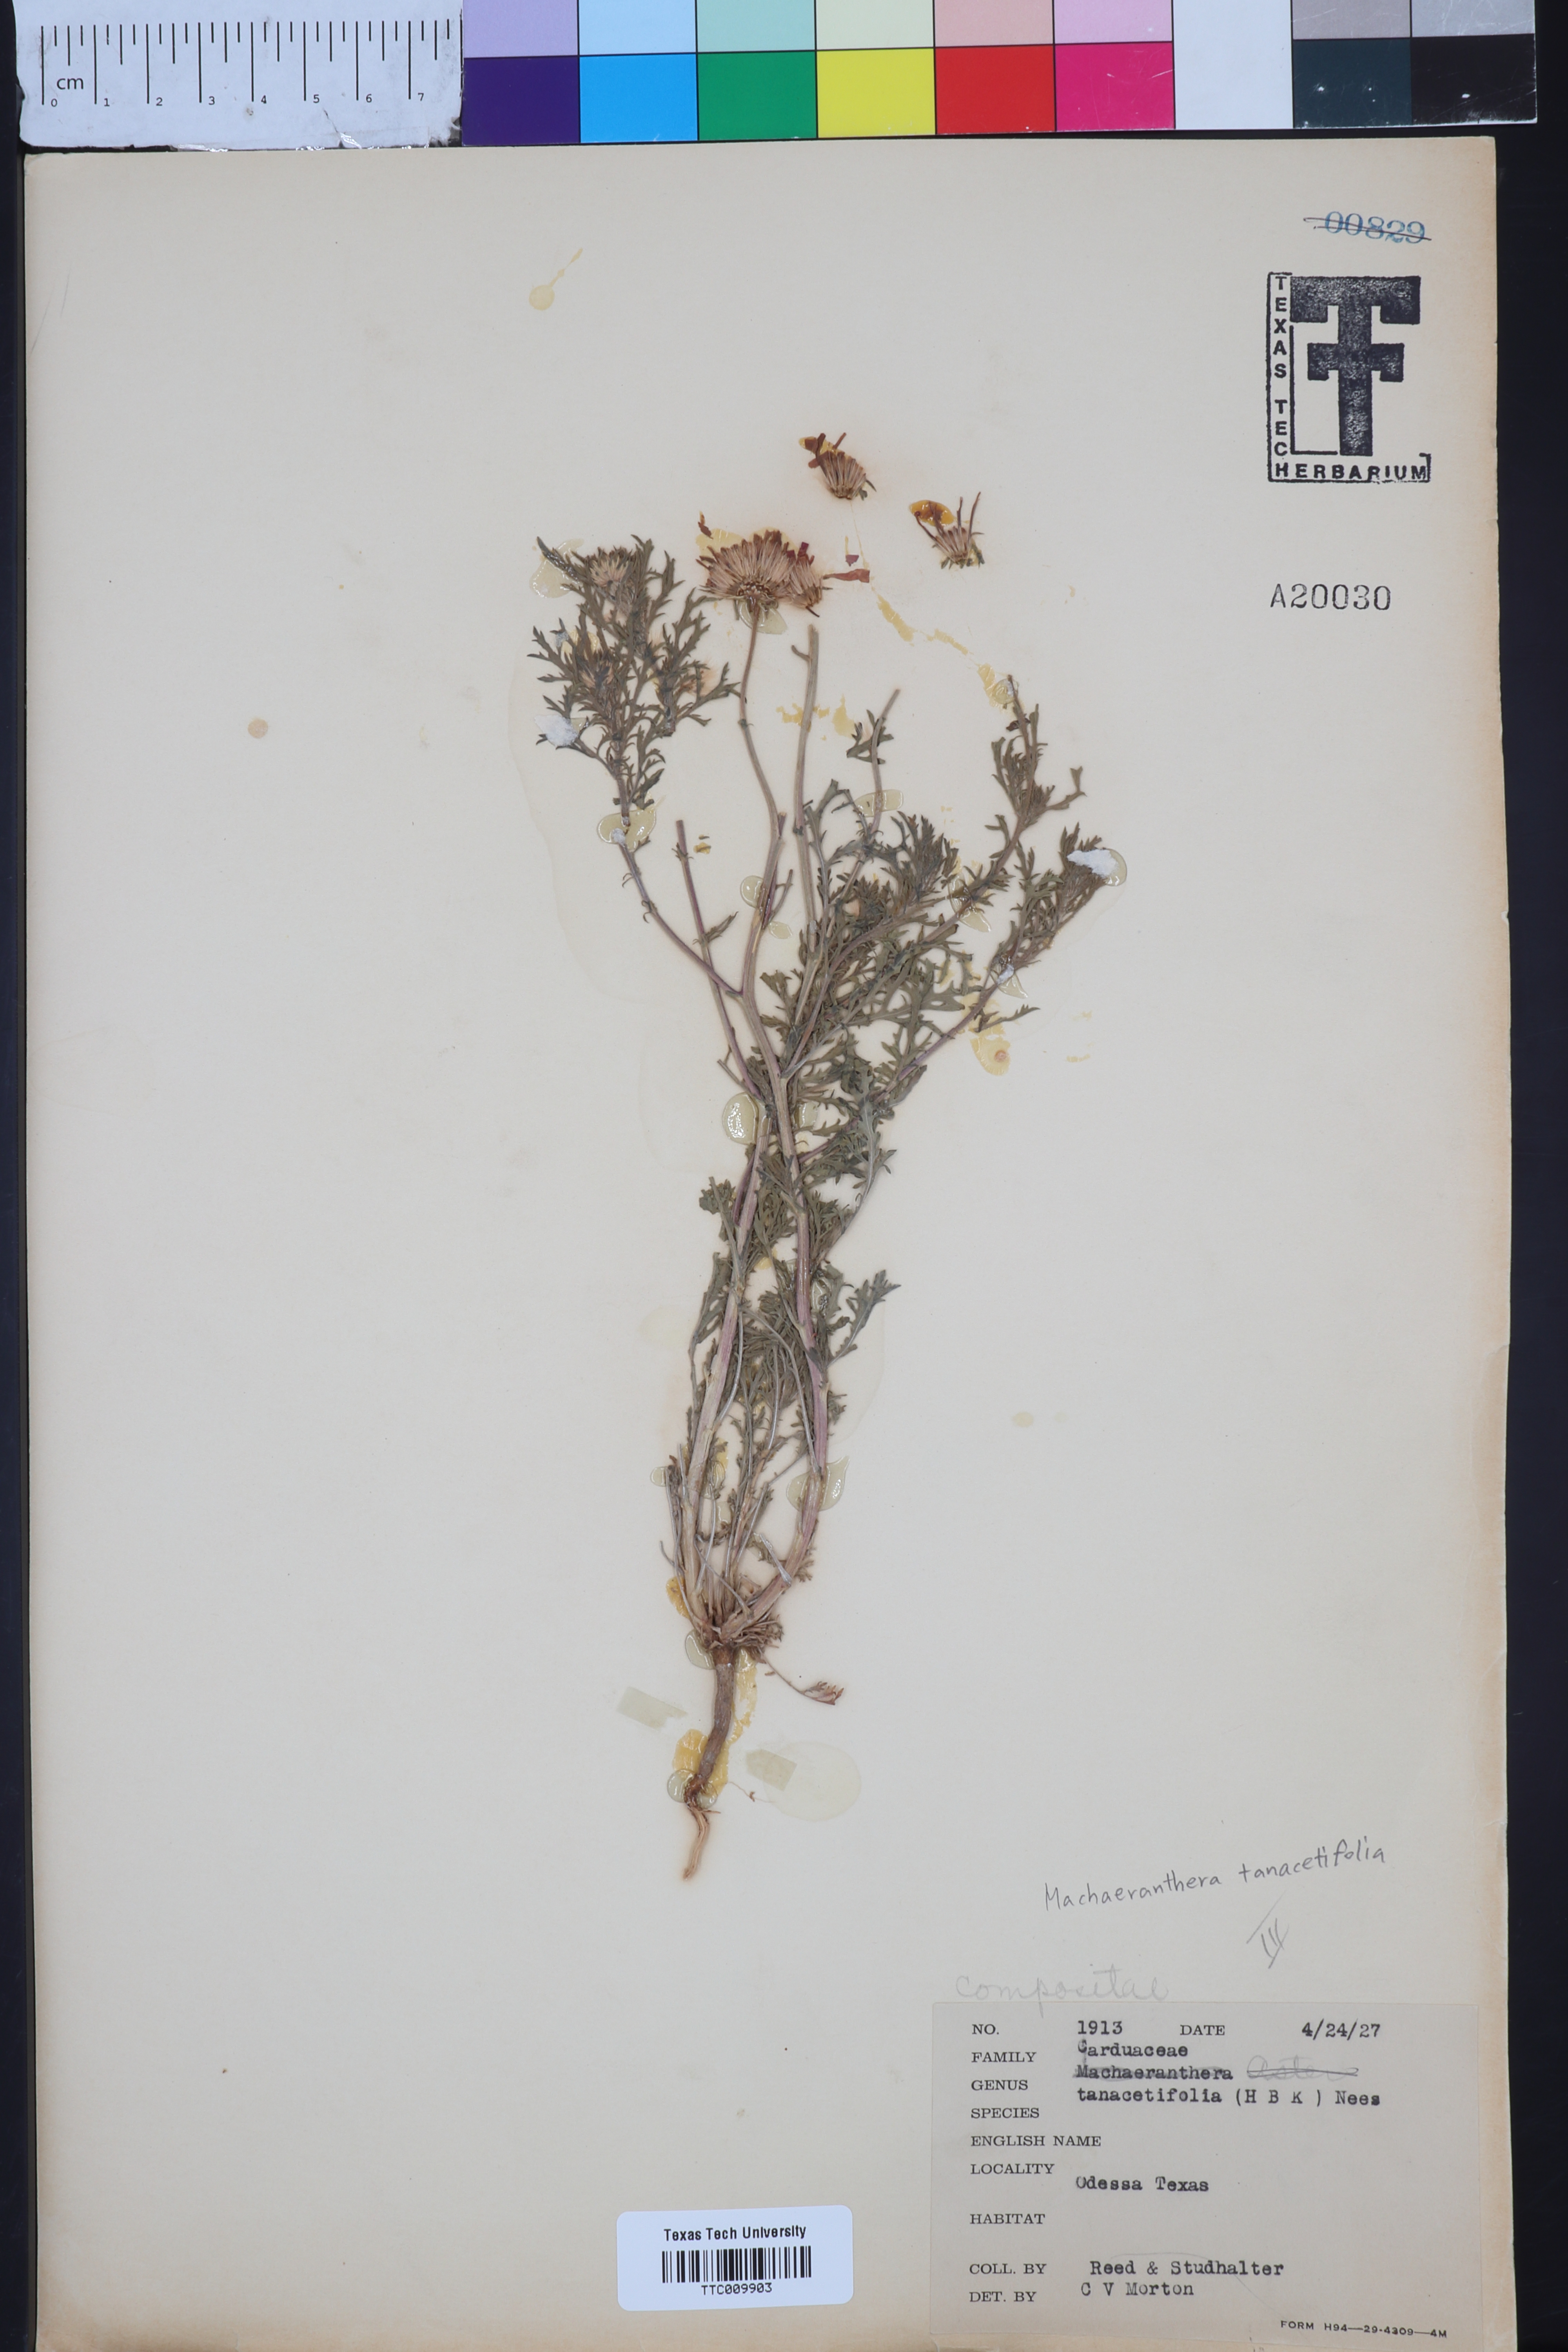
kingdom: Plantae
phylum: Tracheophyta
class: Magnoliopsida
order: Asterales
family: Asteraceae
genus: Machaeranthera
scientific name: Machaeranthera tanacetifolia
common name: Tansy-aster
